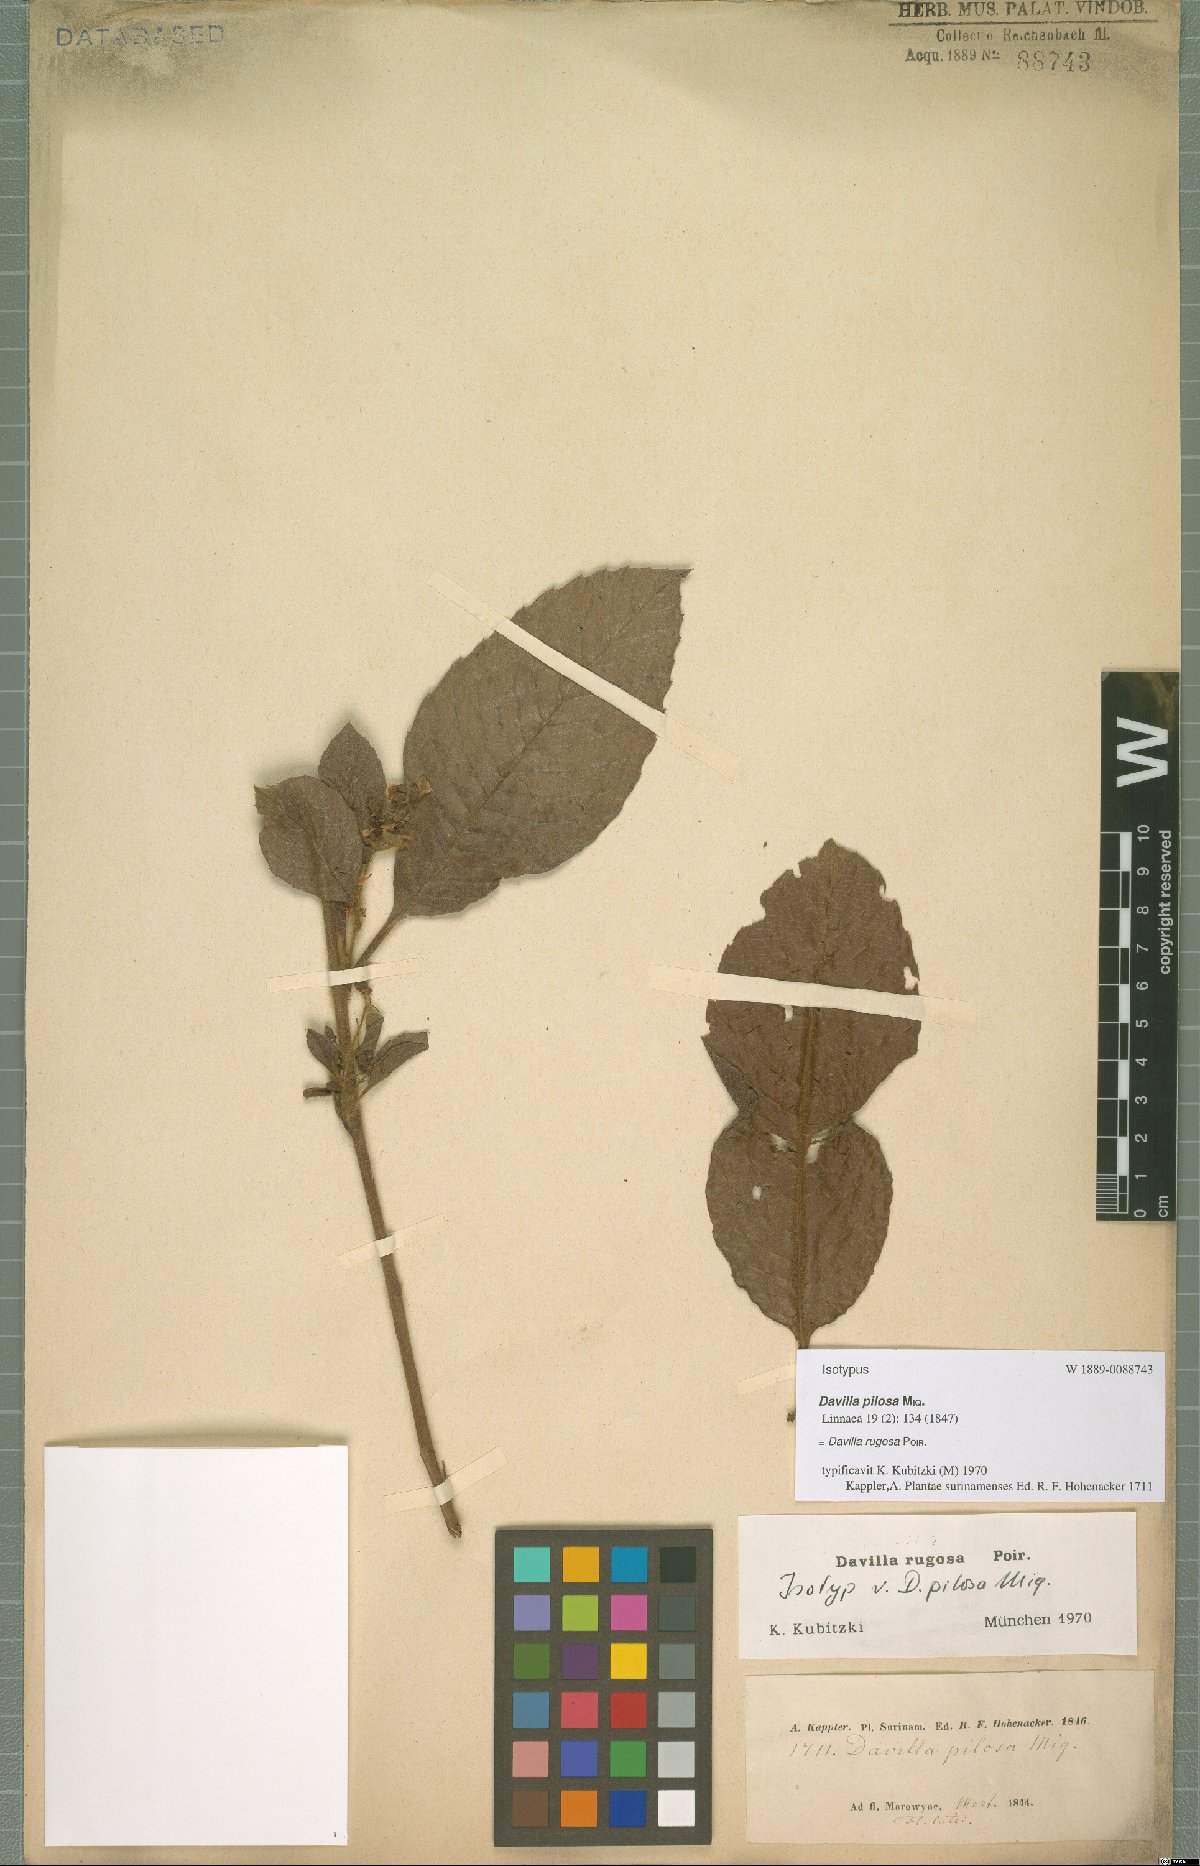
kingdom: Plantae
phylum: Tracheophyta
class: Magnoliopsida
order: Dilleniales
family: Dilleniaceae
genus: Davilla
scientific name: Davilla rugosa
